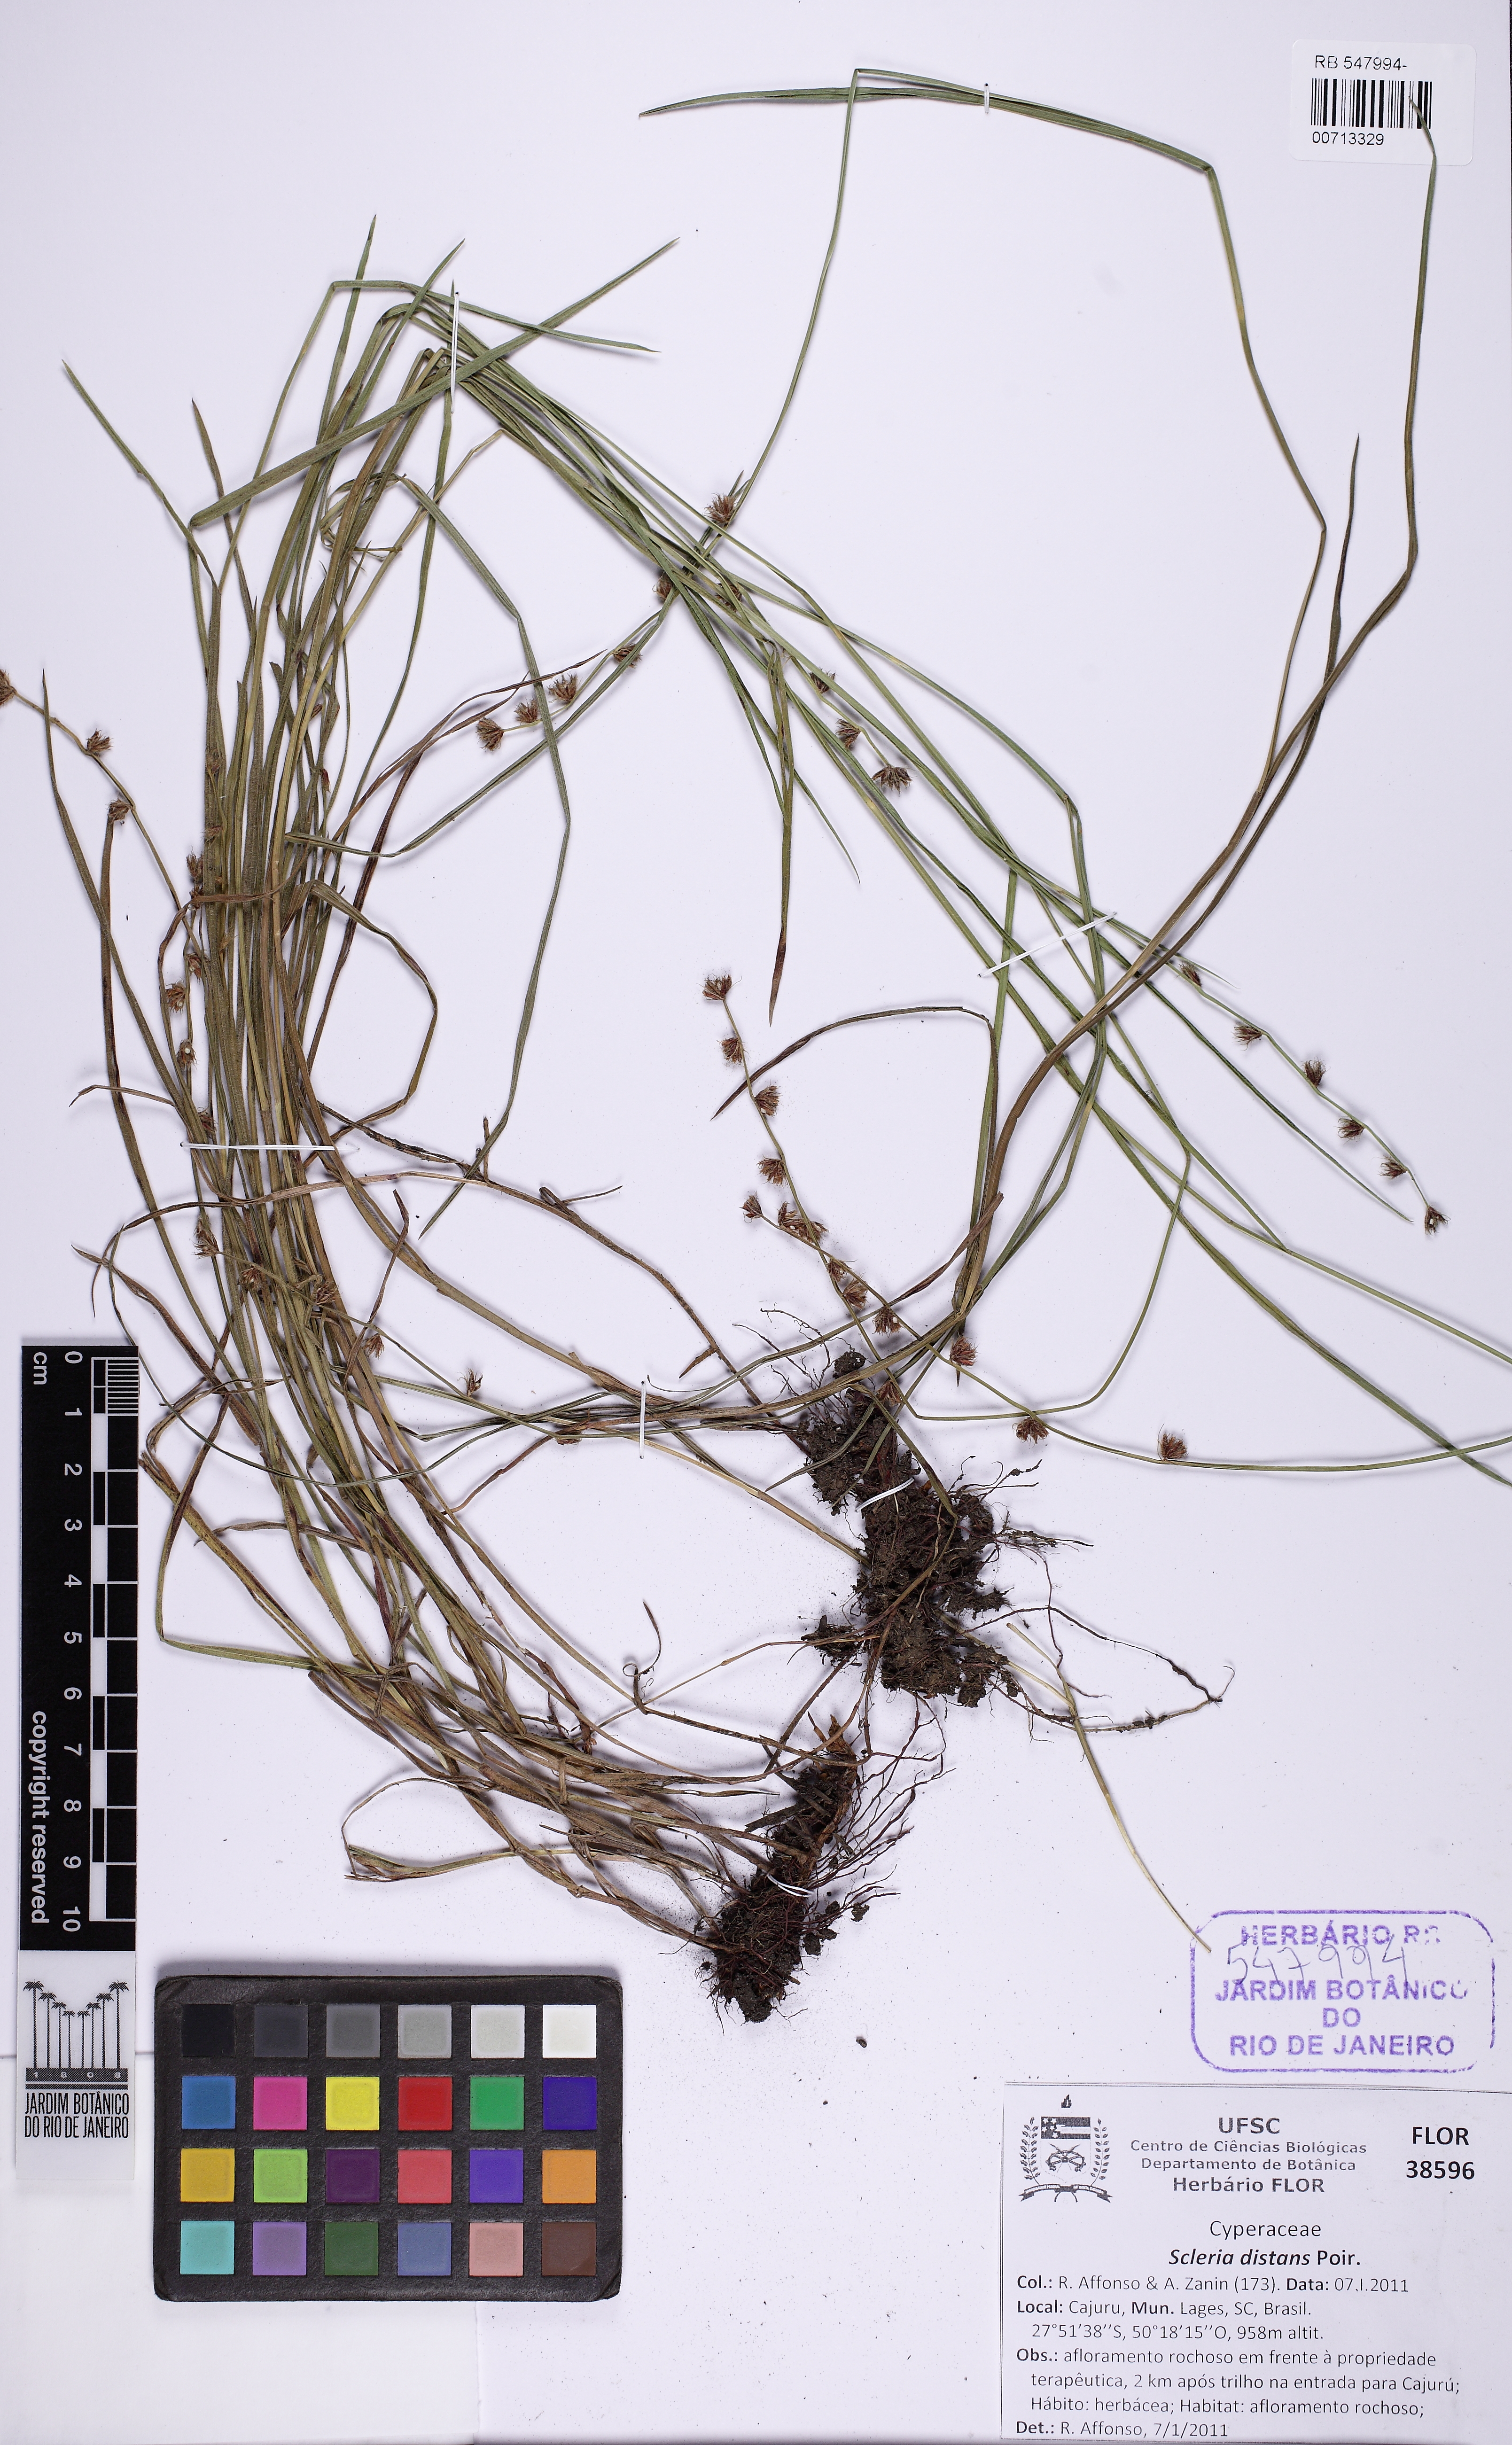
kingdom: Plantae
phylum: Tracheophyta
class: Liliopsida
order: Poales
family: Cyperaceae
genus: Scleria
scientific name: Scleria distans
